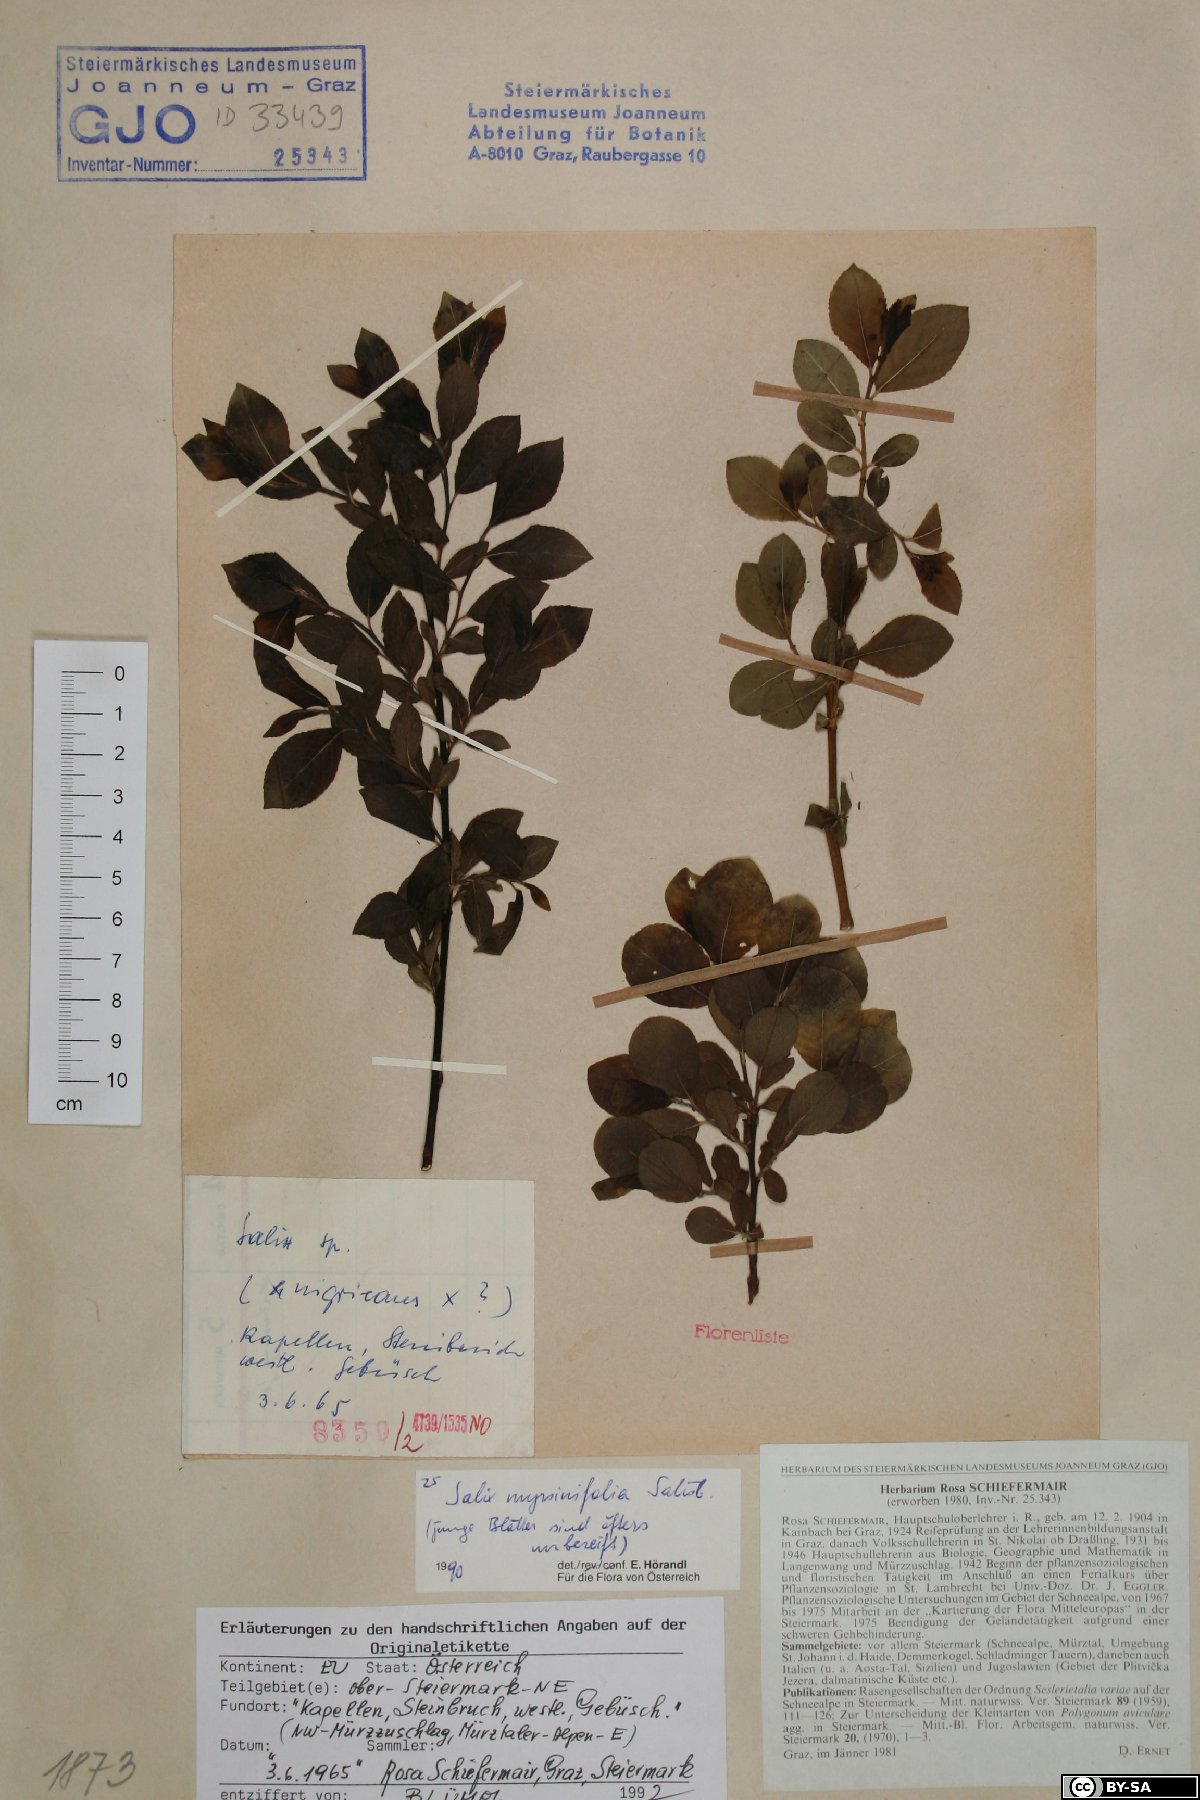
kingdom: Plantae
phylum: Tracheophyta
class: Magnoliopsida
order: Malpighiales
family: Salicaceae
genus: Salix
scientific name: Salix myrsinifolia
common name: Dark-leaved willow
